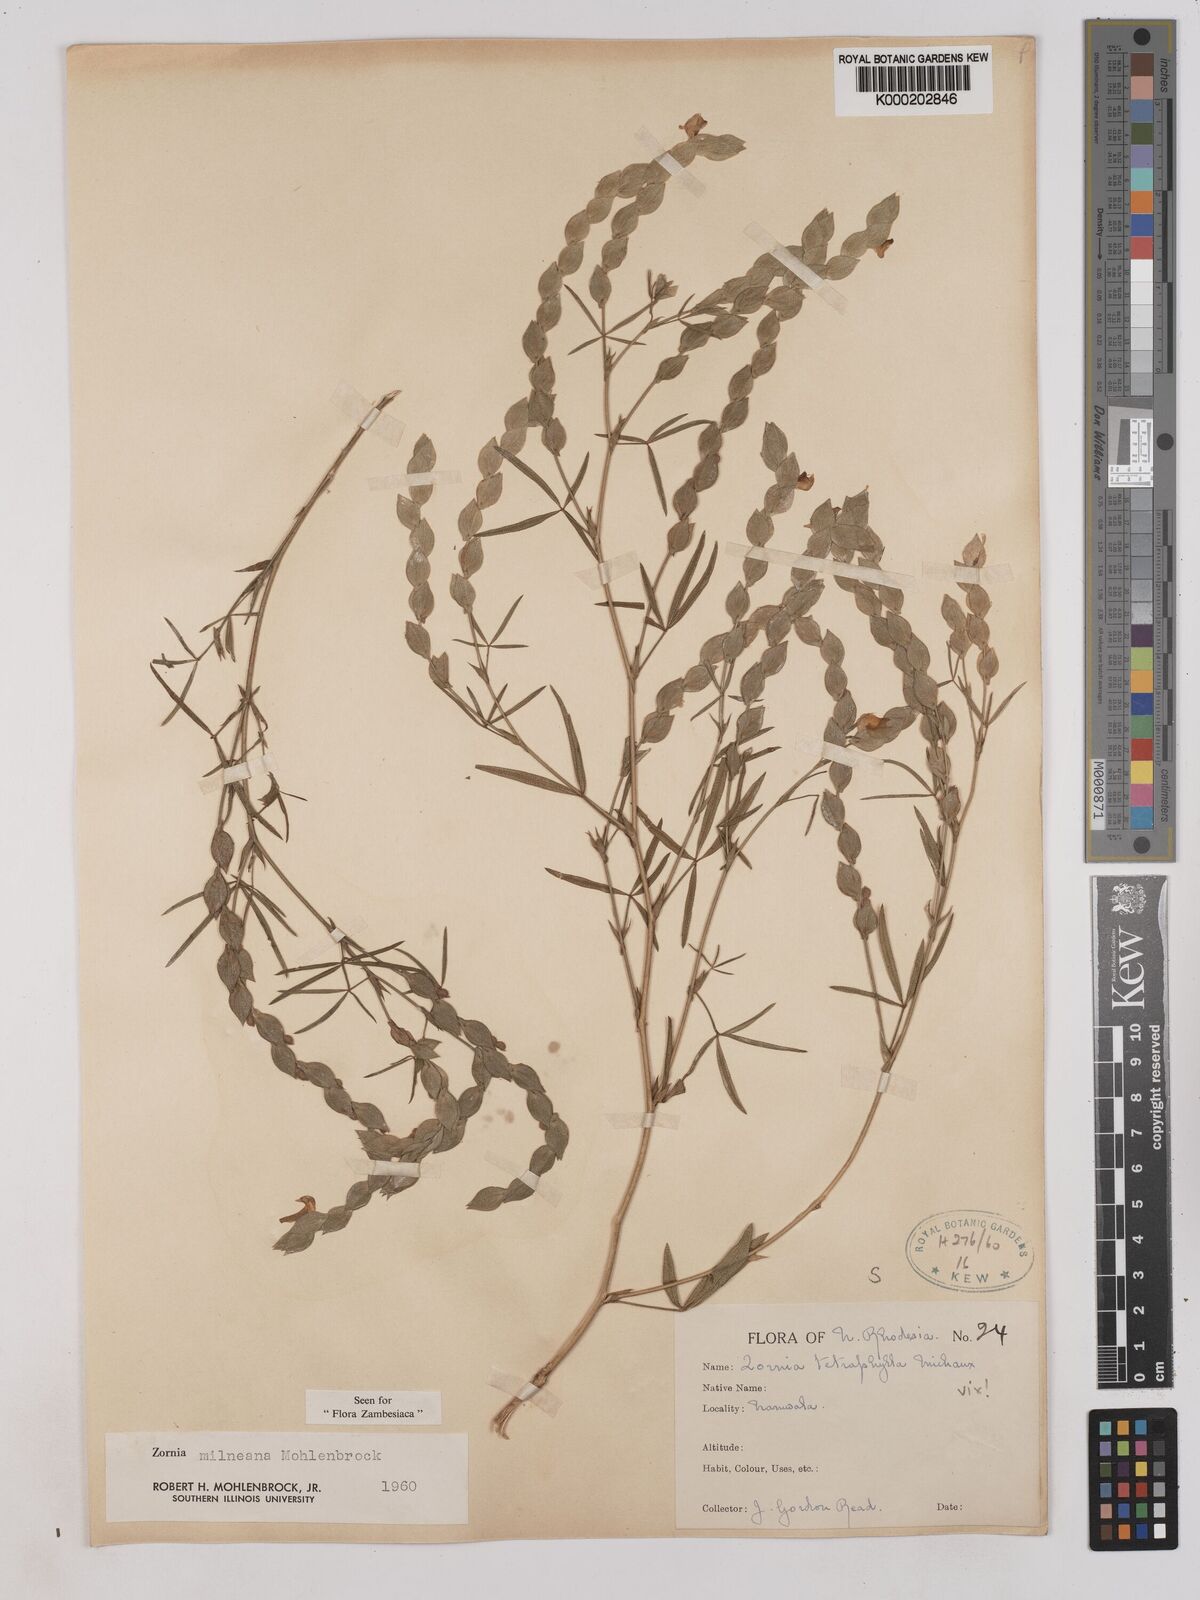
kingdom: Plantae
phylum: Tracheophyta
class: Magnoliopsida
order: Fabales
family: Fabaceae
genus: Zornia
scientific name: Zornia milneana
